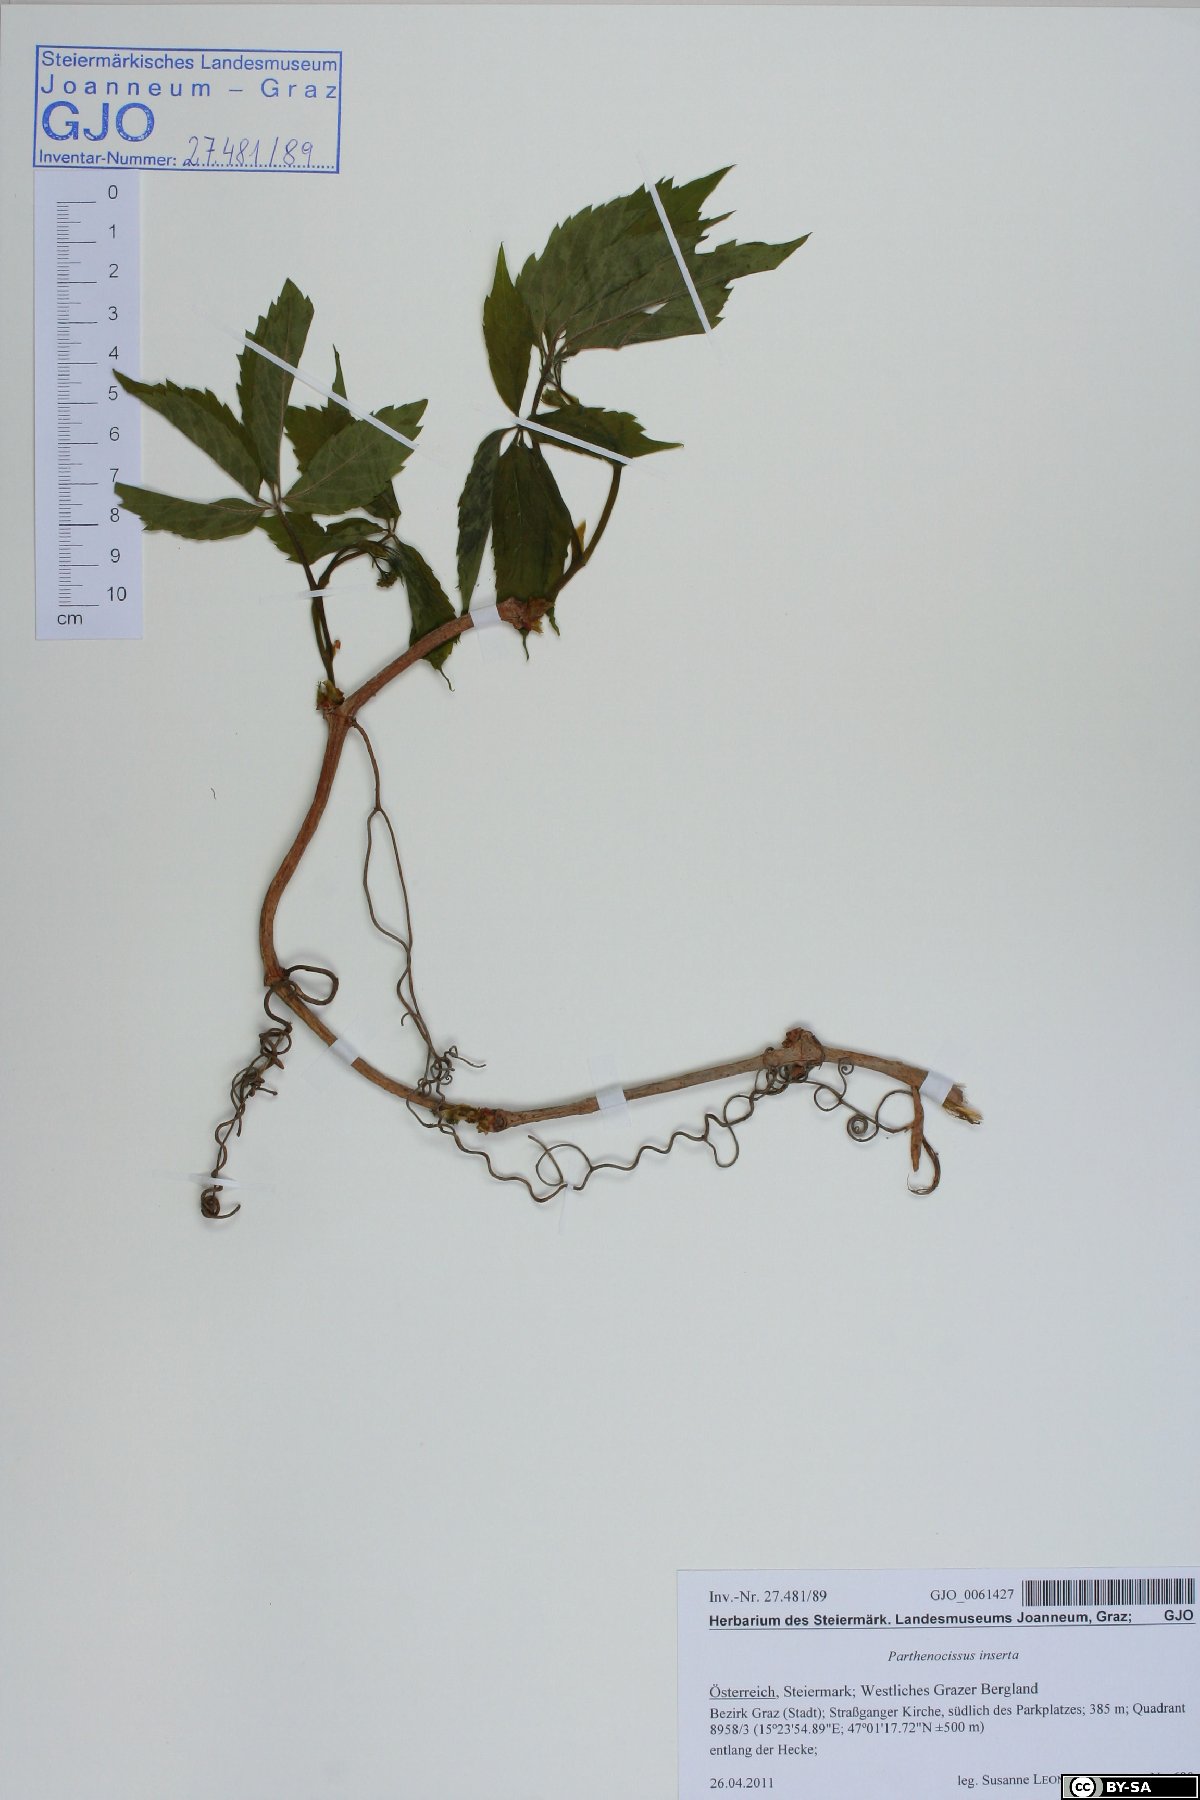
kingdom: Plantae
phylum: Tracheophyta
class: Magnoliopsida
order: Vitales
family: Vitaceae
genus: Parthenocissus
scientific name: Parthenocissus inserta
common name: False virginia-creeper
